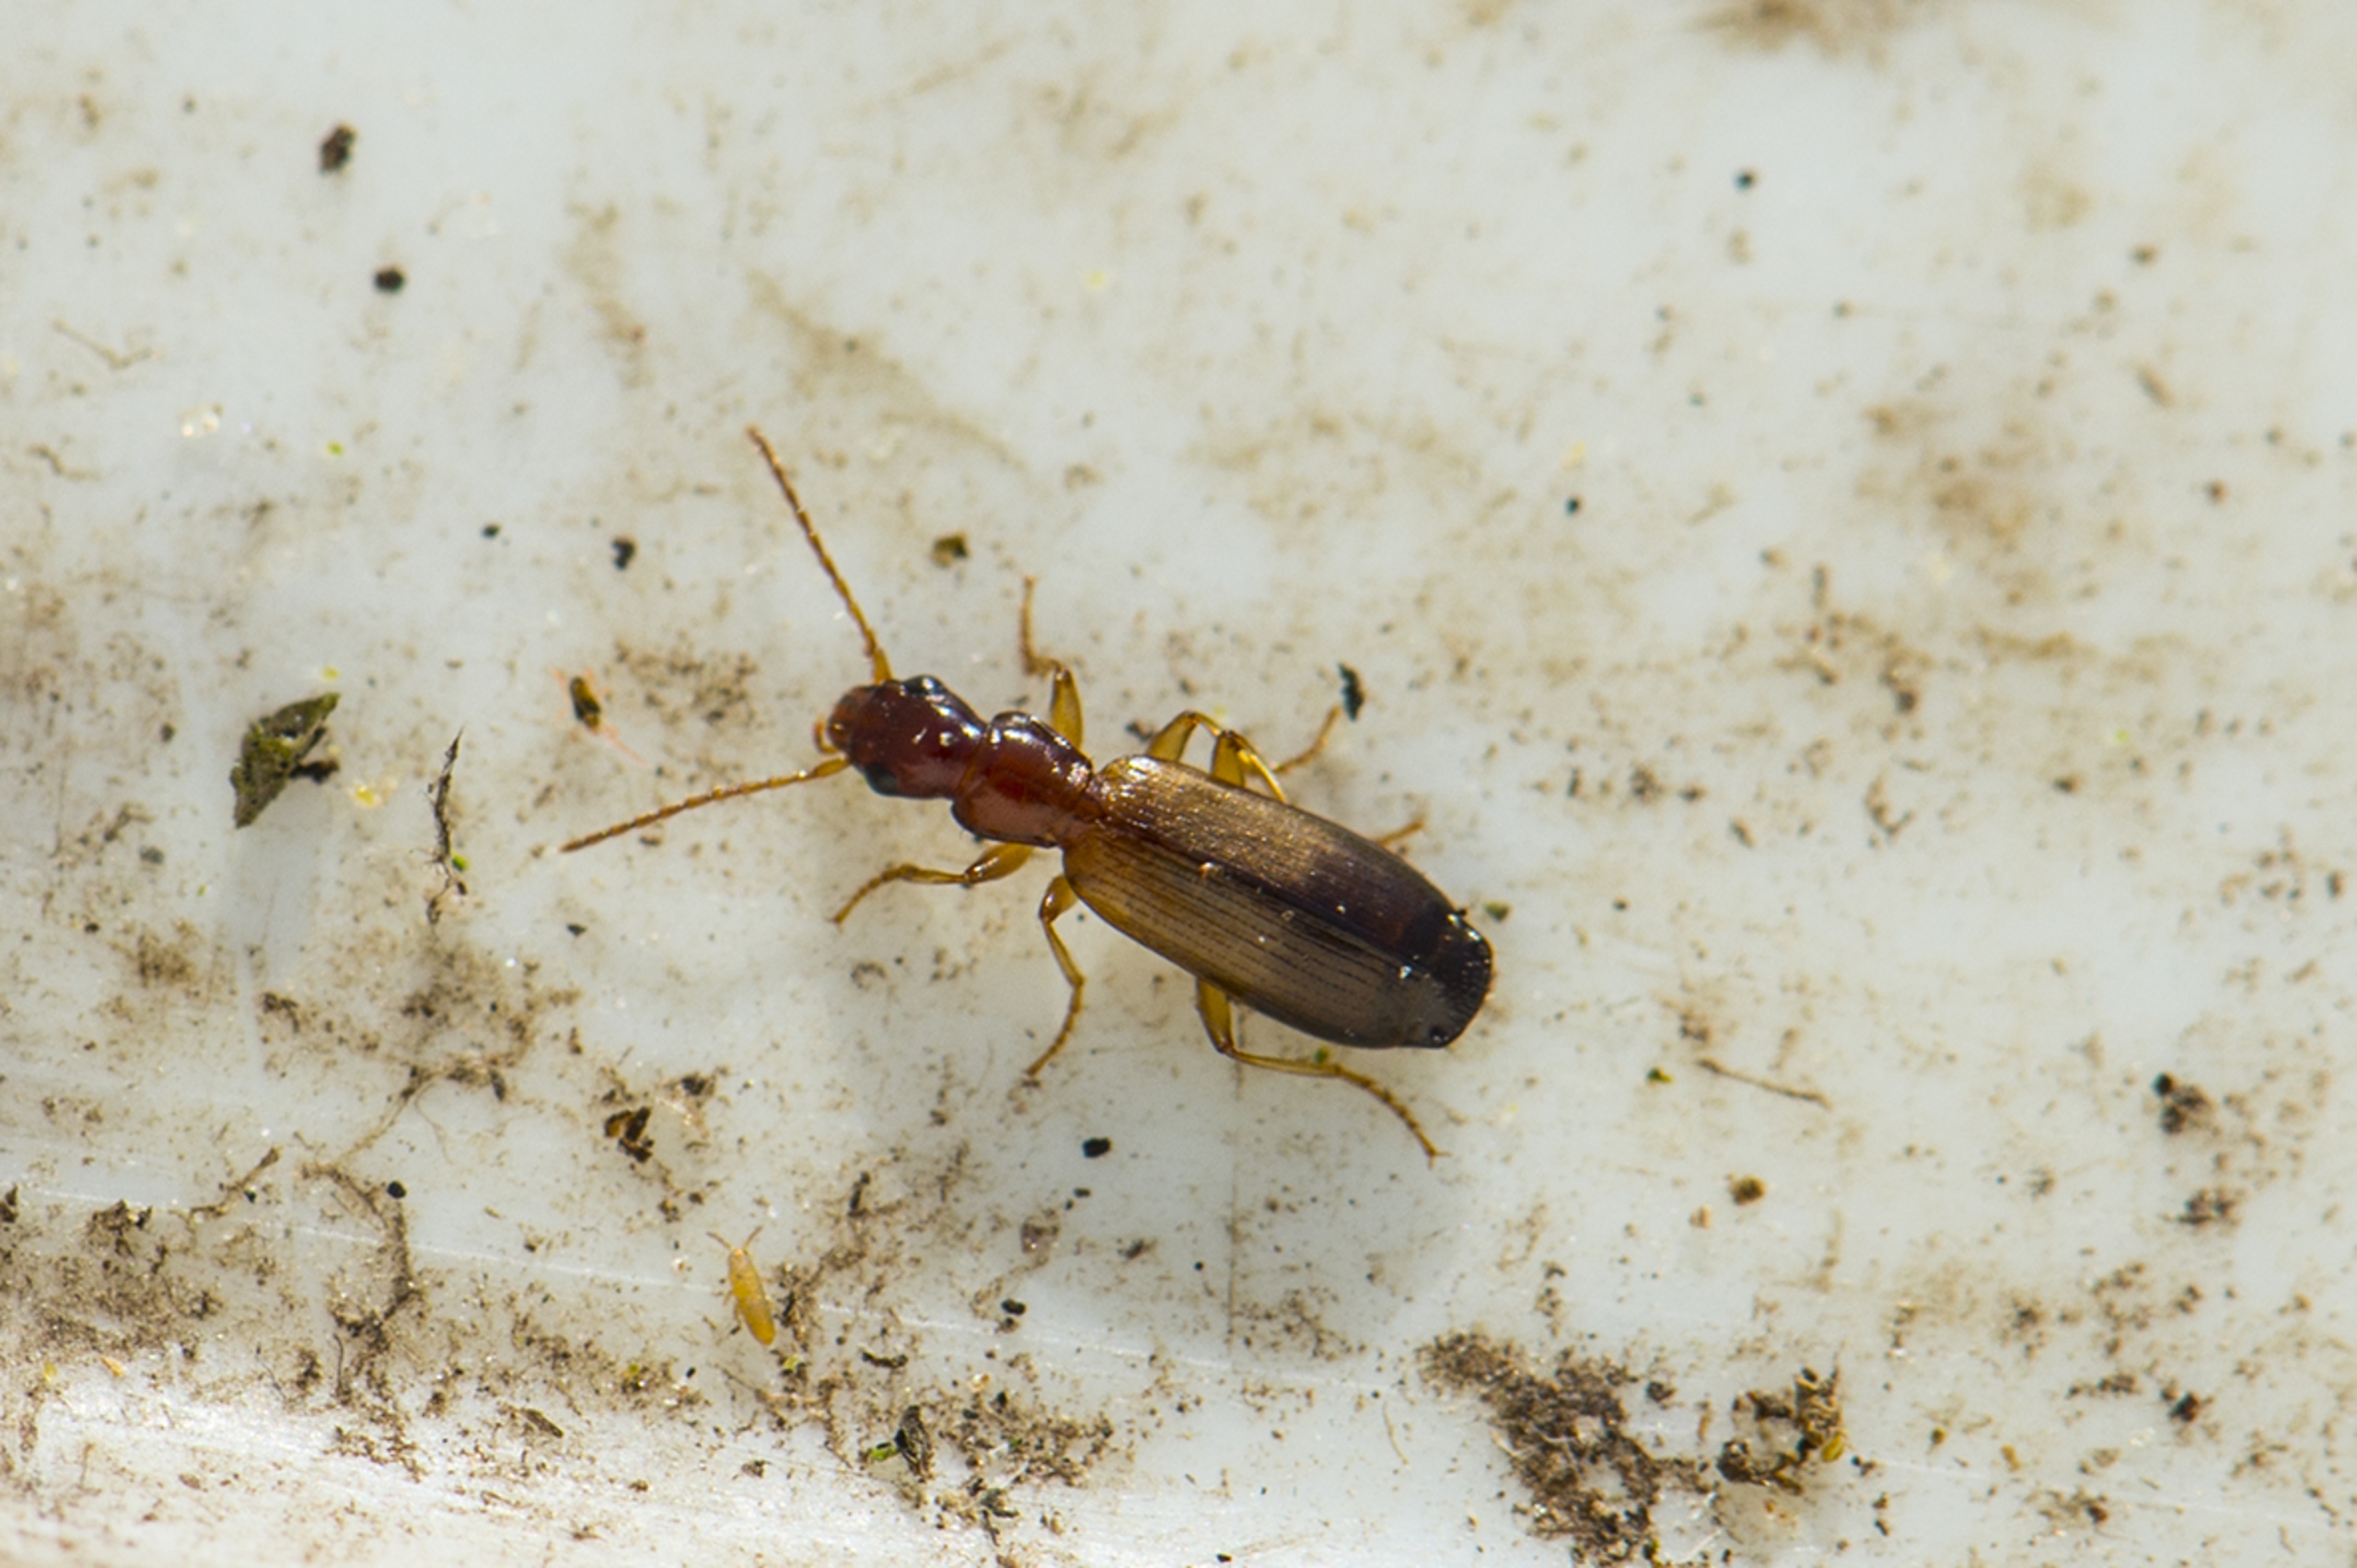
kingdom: Animalia
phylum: Arthropoda
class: Insecta
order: Coleoptera
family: Carabidae
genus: Paradromius
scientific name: Paradromius linearis
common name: Smal sivløber
